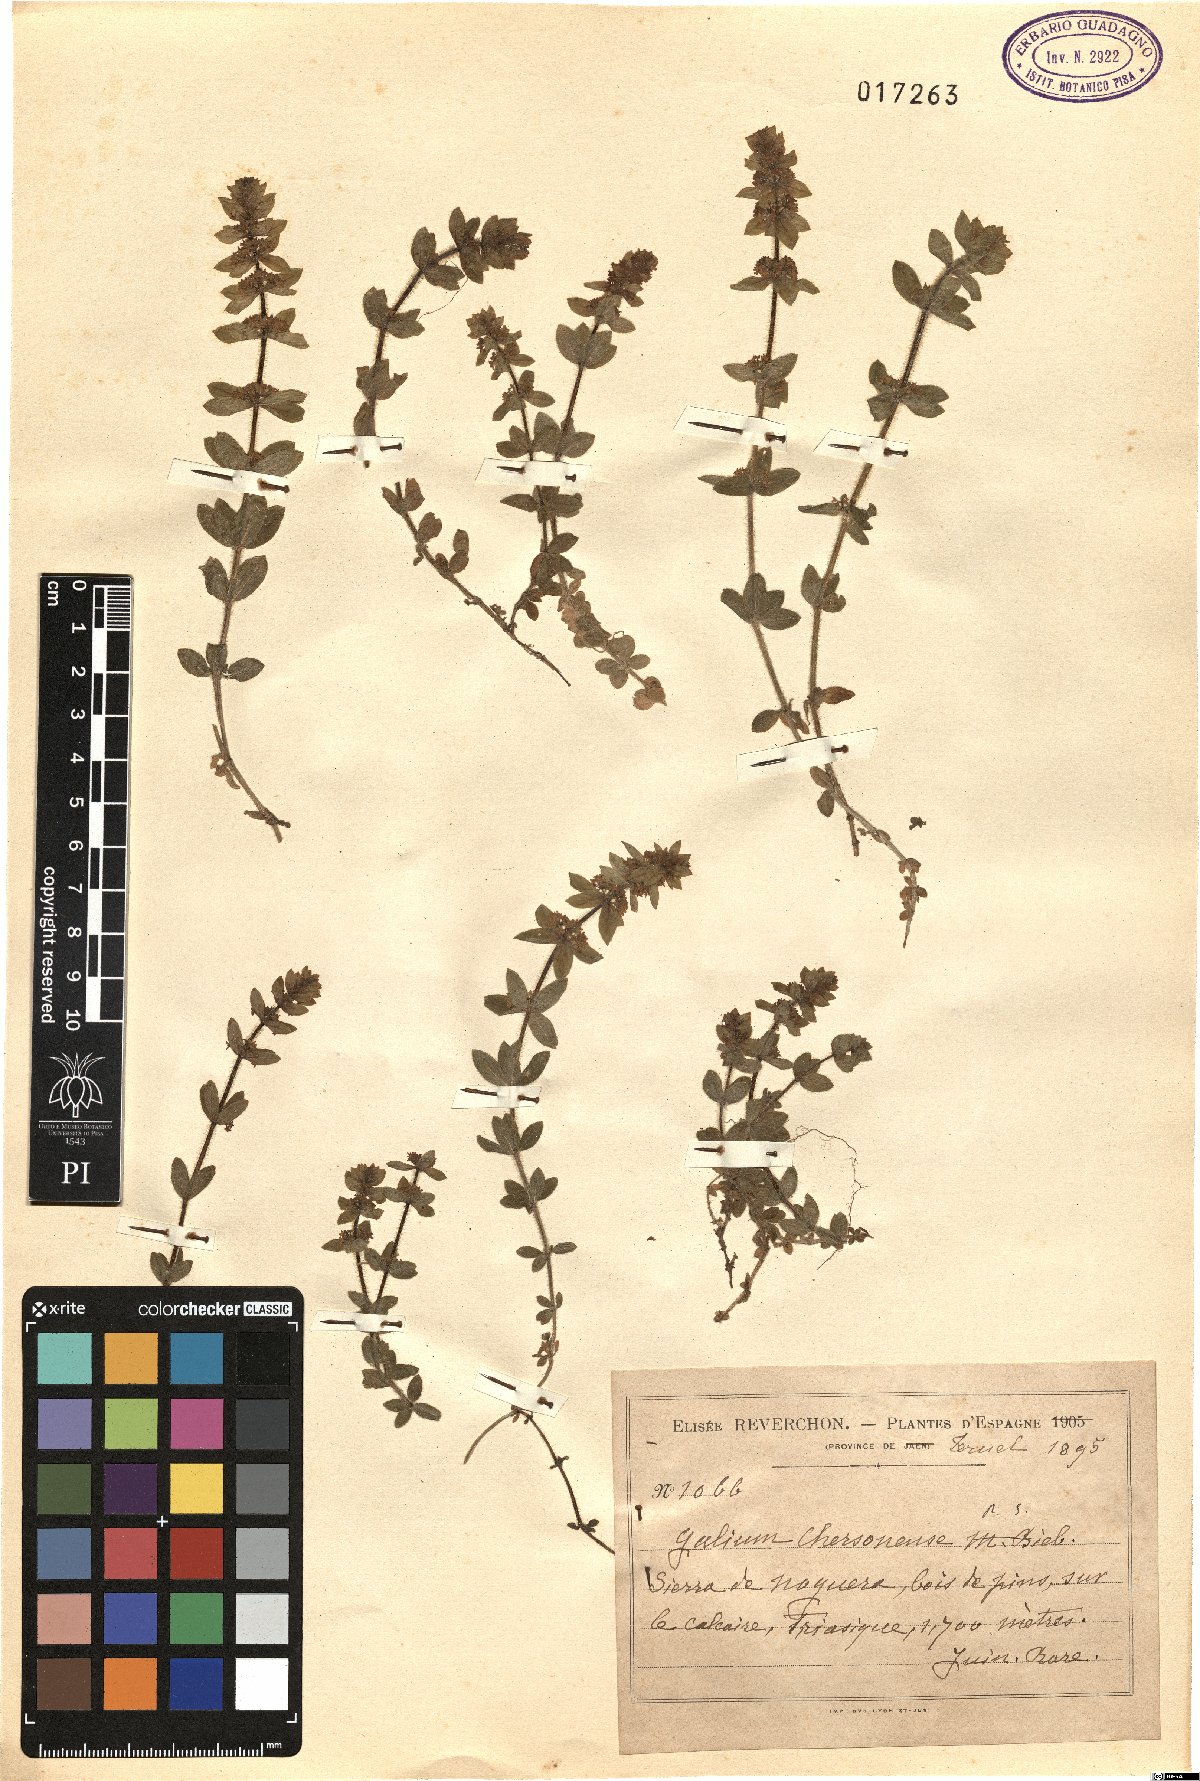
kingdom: Plantae
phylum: Tracheophyta
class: Magnoliopsida
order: Gentianales
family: Rubiaceae
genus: Cruciata
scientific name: Cruciata taurica
